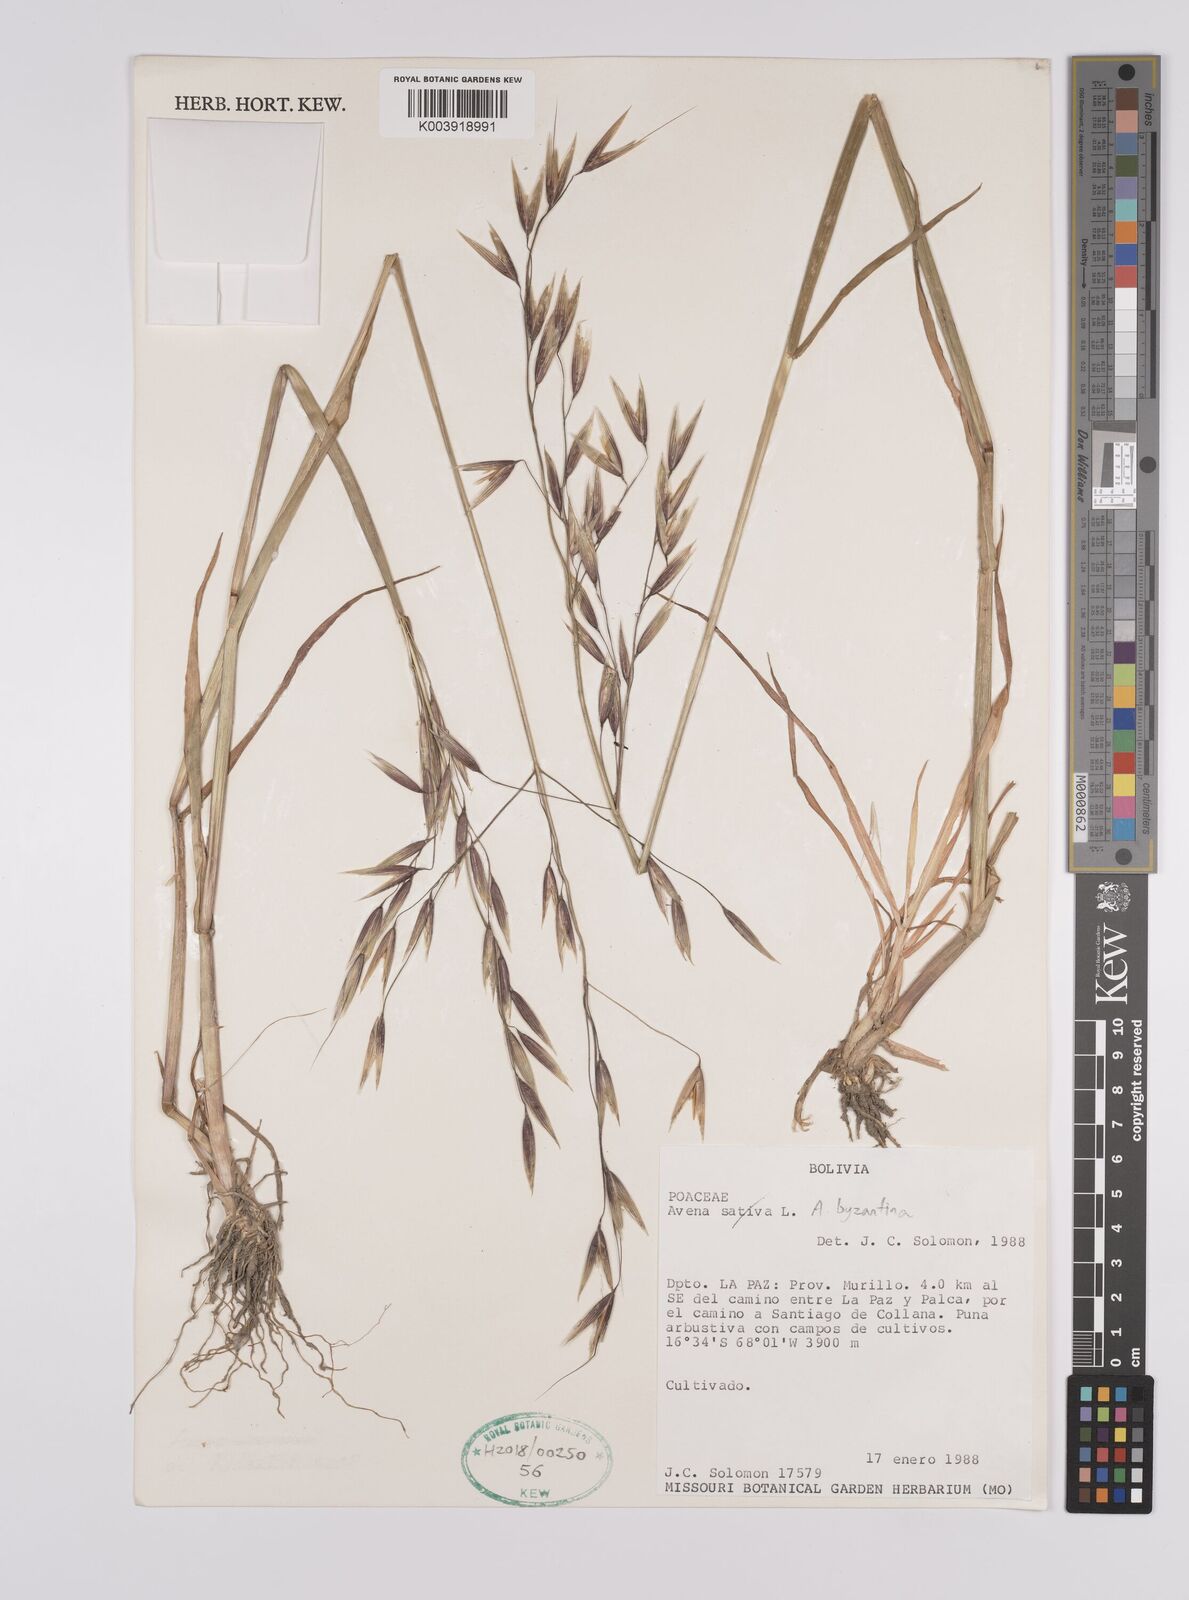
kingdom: Plantae
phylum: Tracheophyta
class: Liliopsida
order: Poales
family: Poaceae
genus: Avena
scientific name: Avena byzantina
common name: Algerian oat
